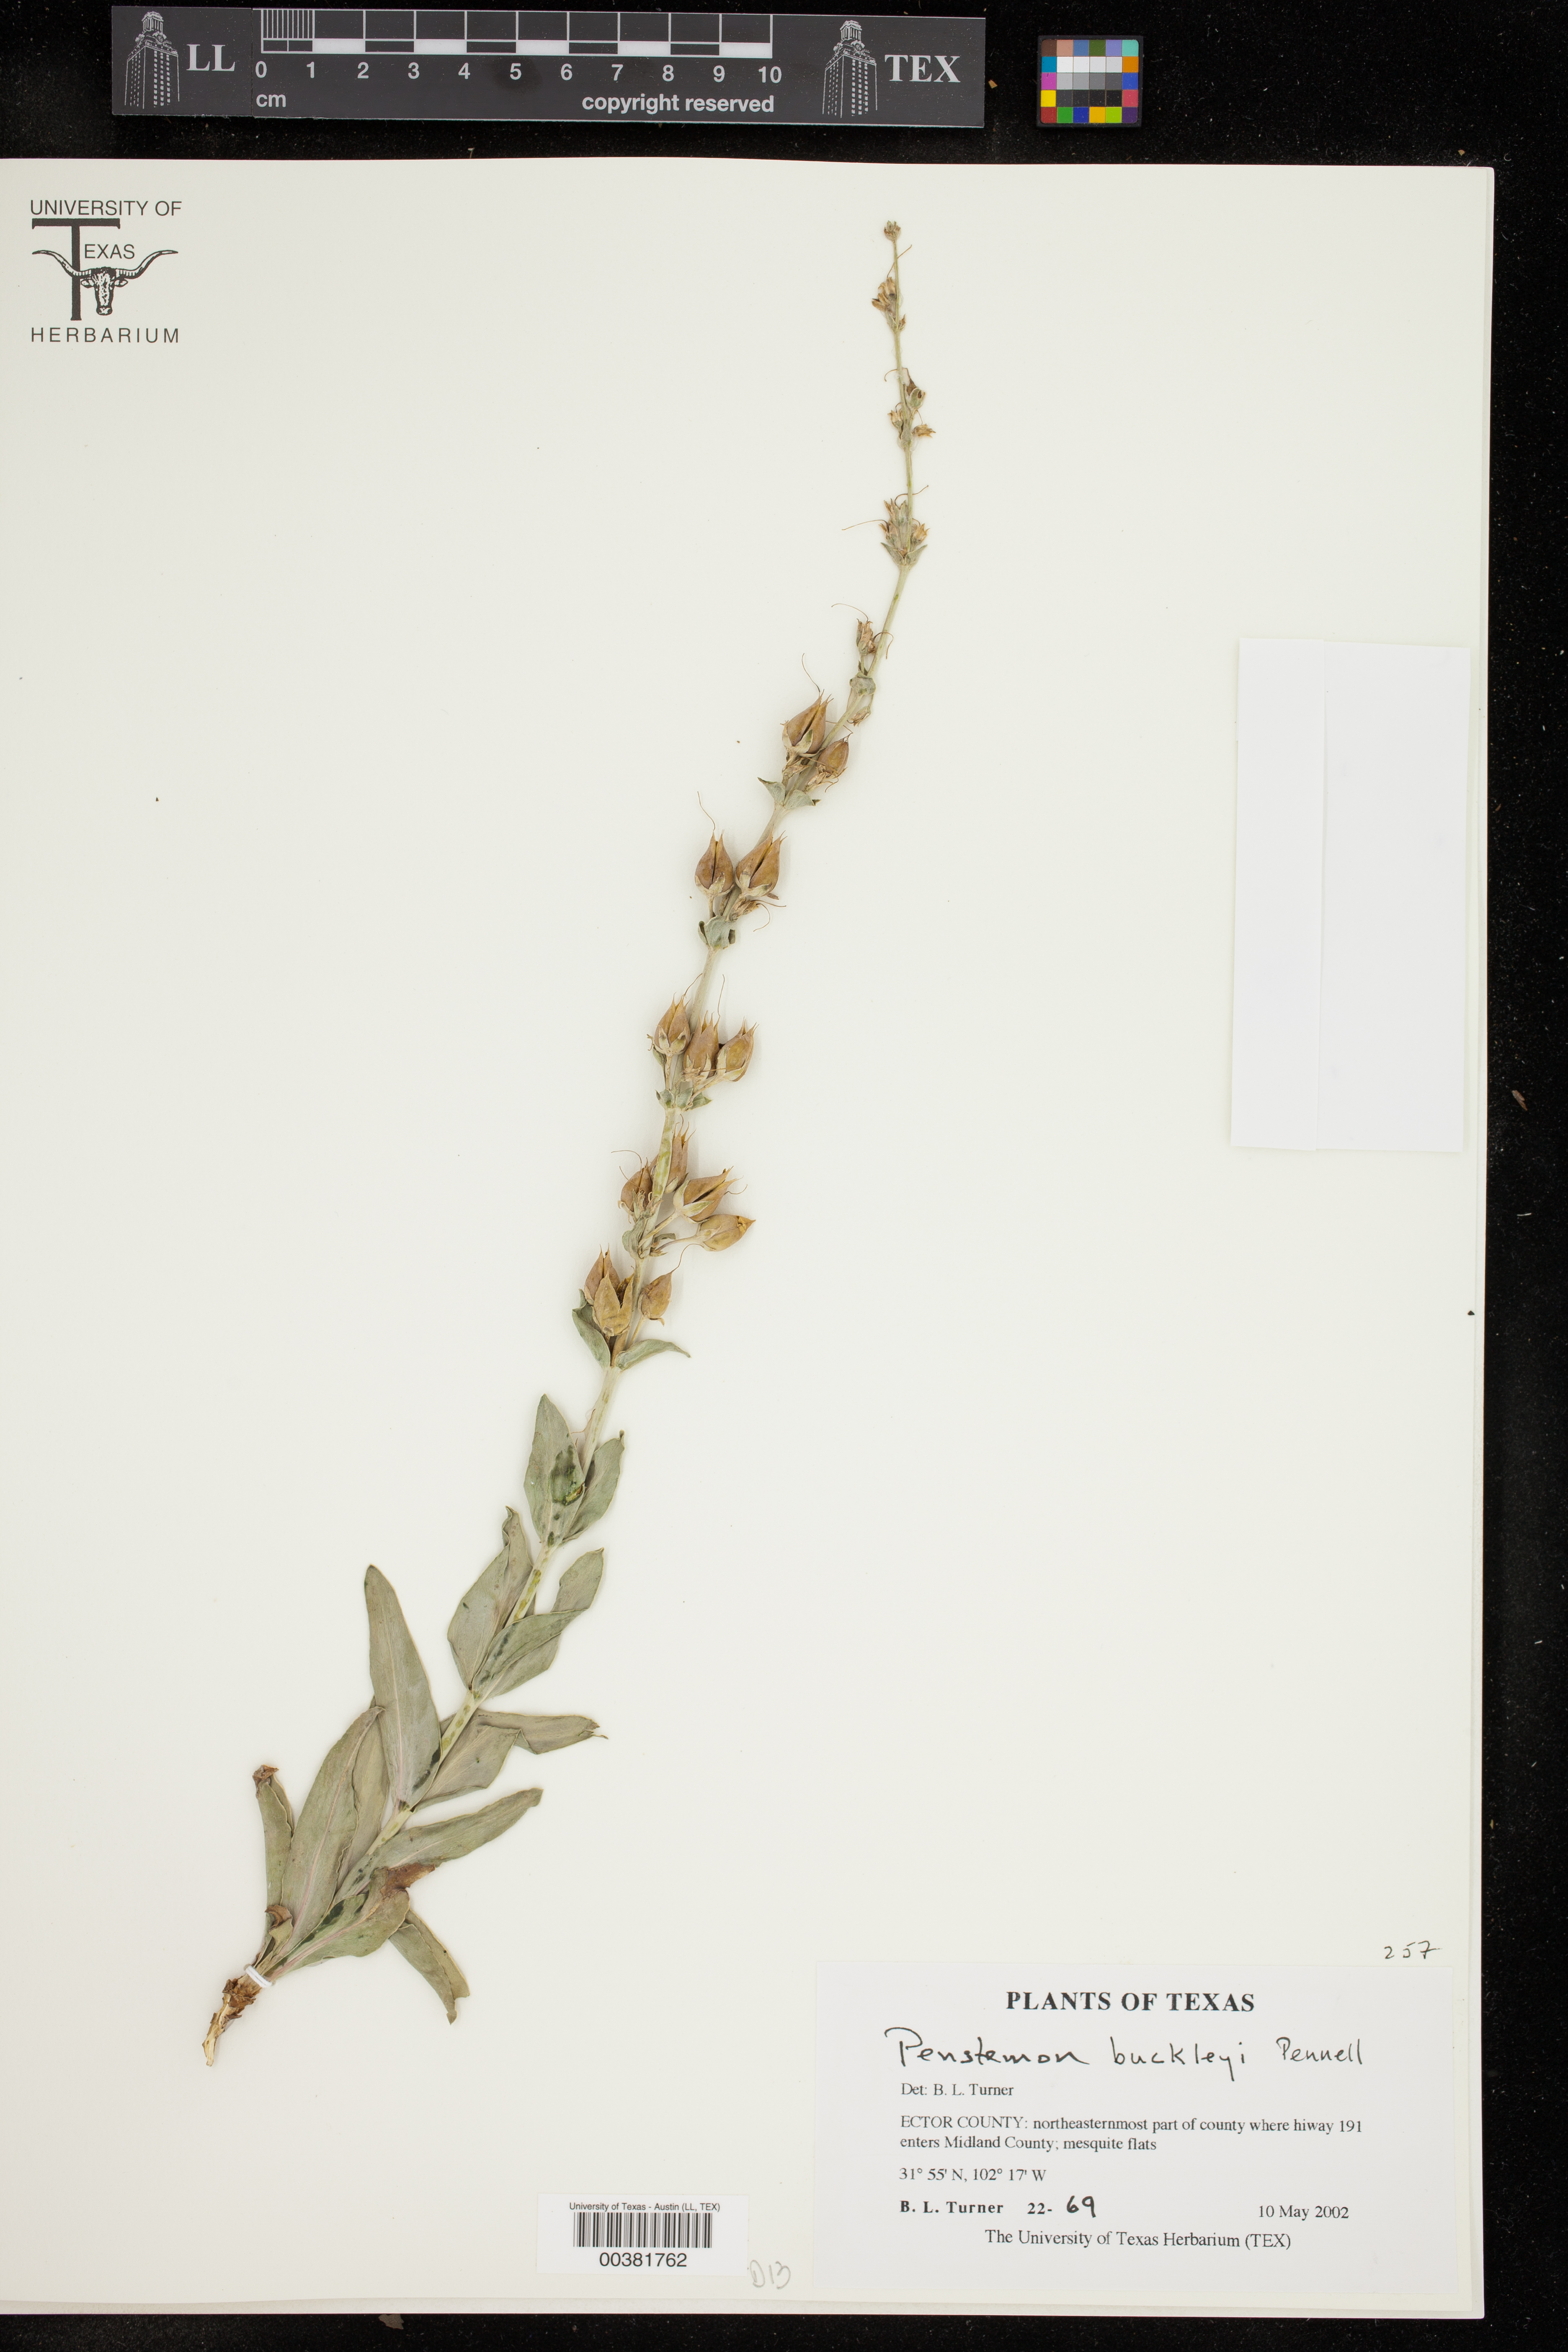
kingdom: Plantae
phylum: Tracheophyta
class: Magnoliopsida
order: Lamiales
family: Plantaginaceae
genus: Penstemon
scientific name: Penstemon buckleyi
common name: Buckley's penstemon
